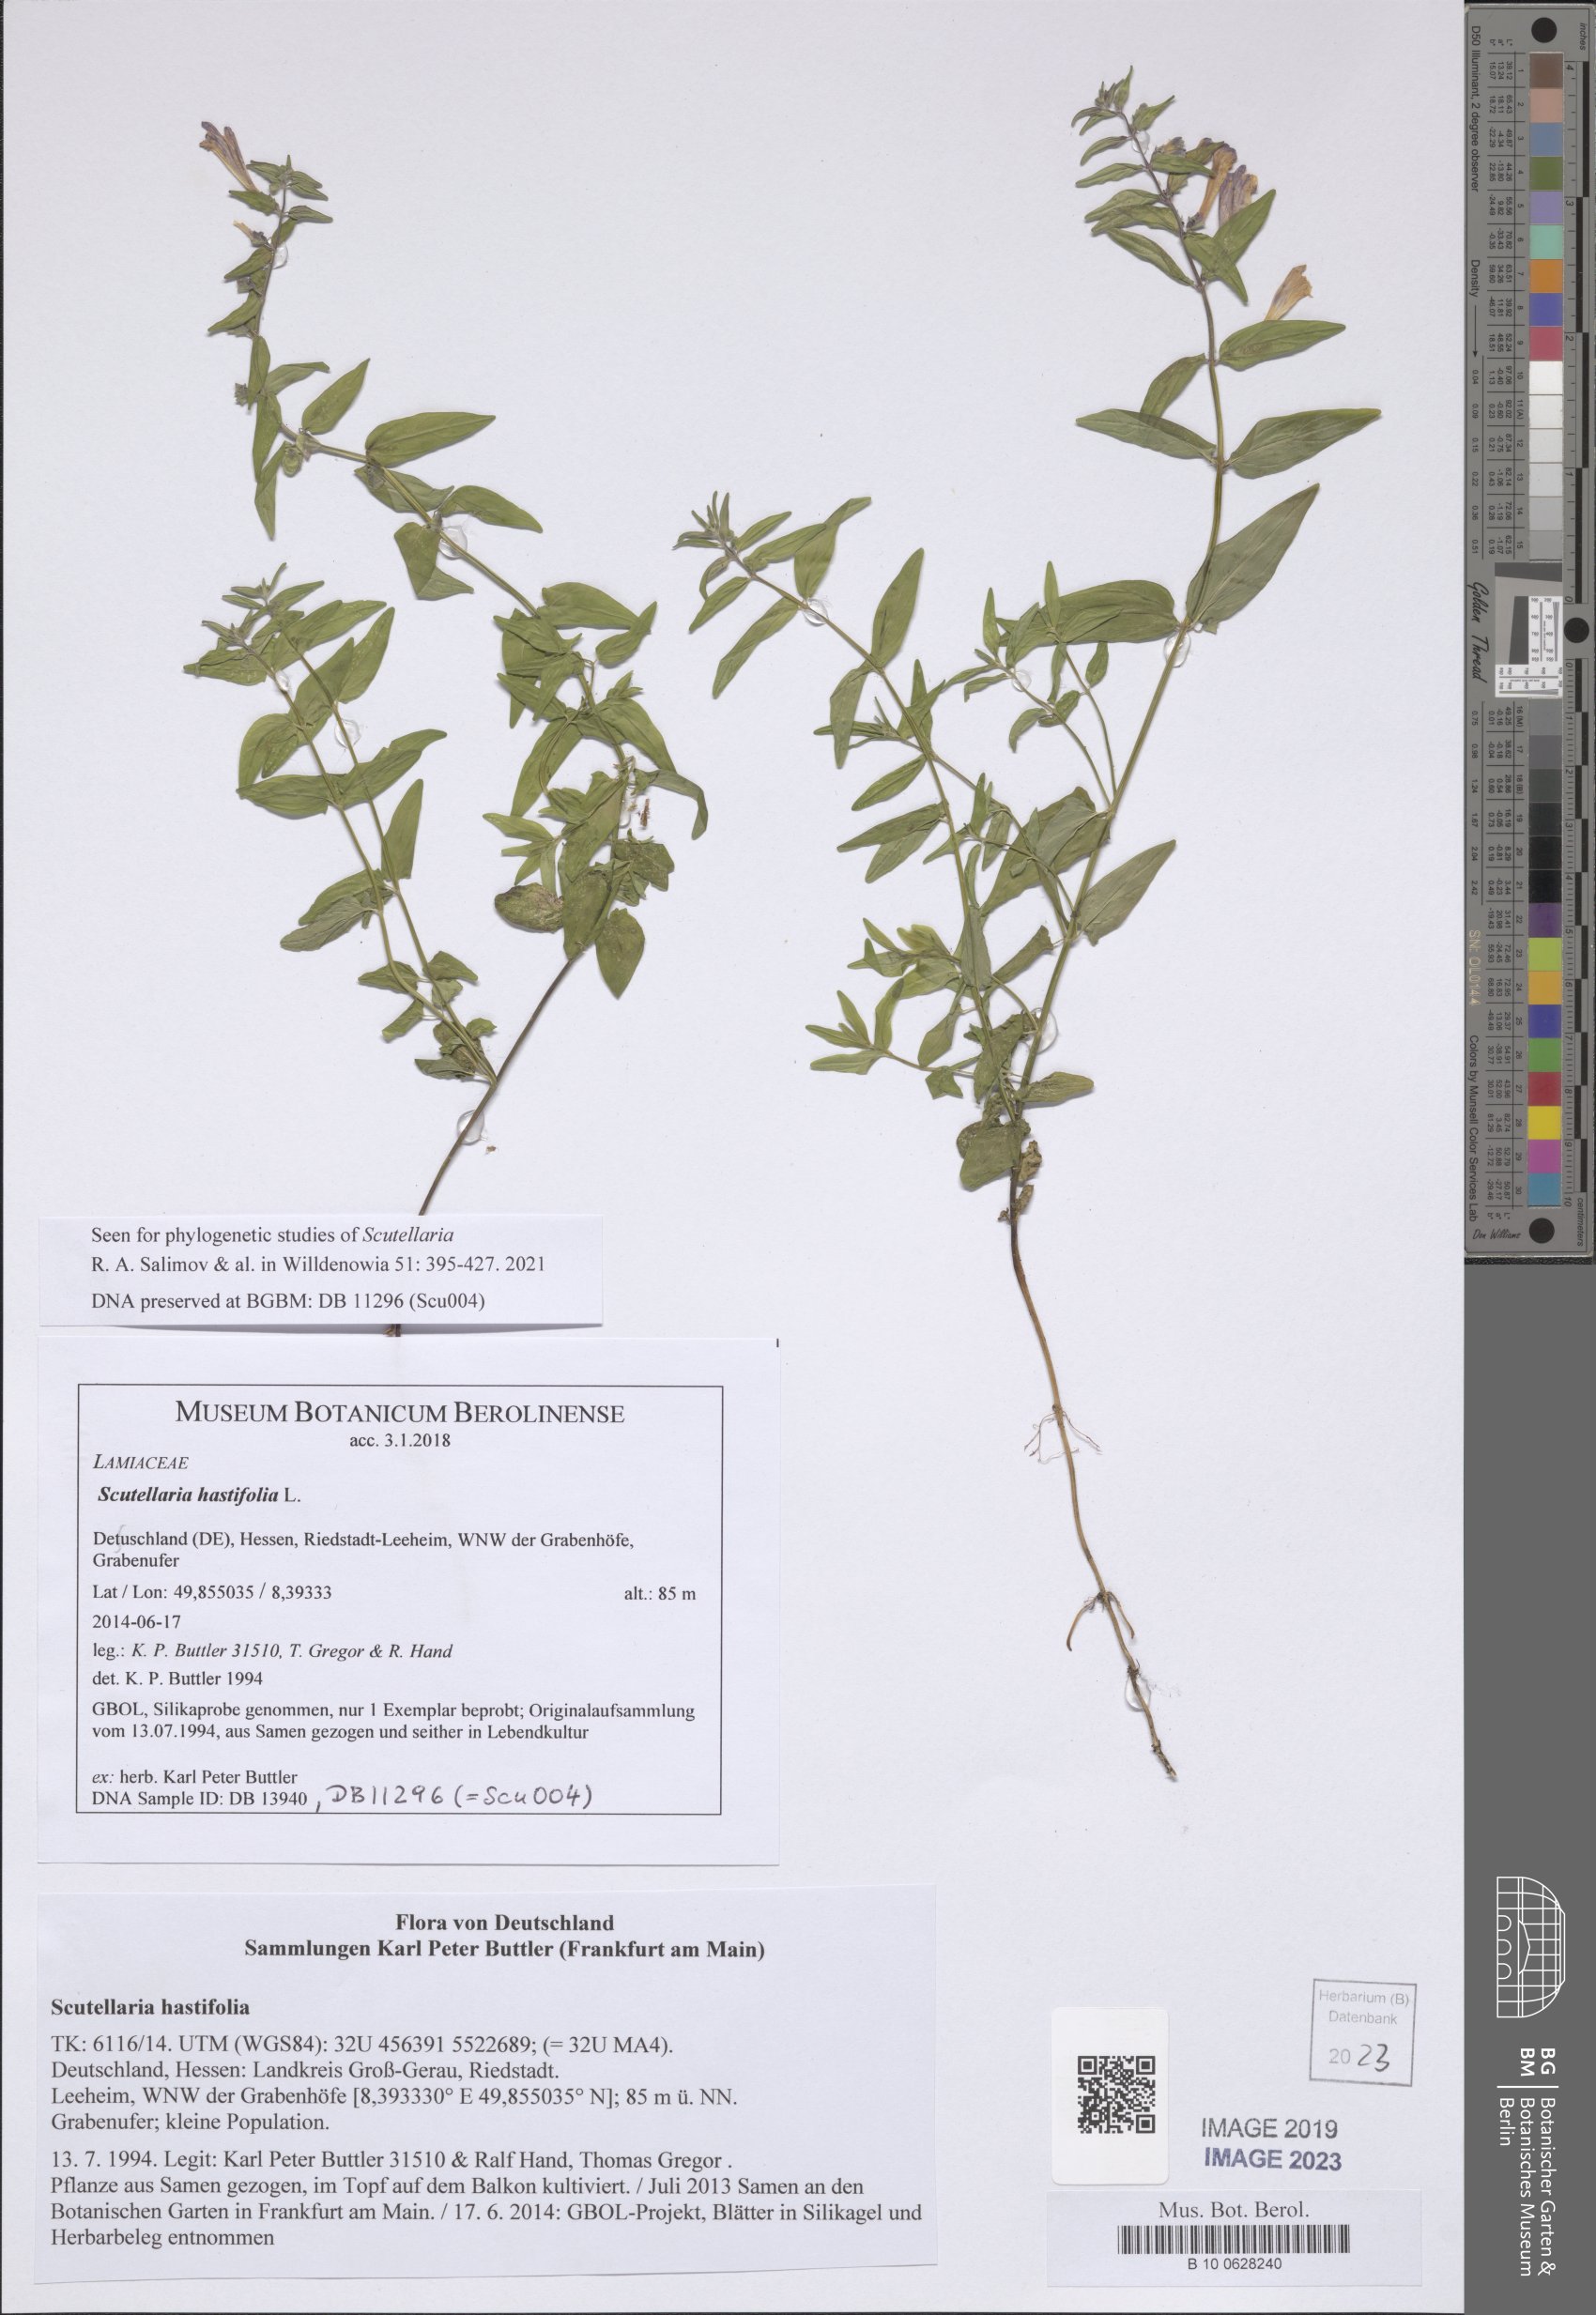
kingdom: Plantae
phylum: Tracheophyta
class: Magnoliopsida
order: Lamiales
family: Lamiaceae
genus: Scutellaria
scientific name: Scutellaria hastifolia
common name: Norfolk skullcap
